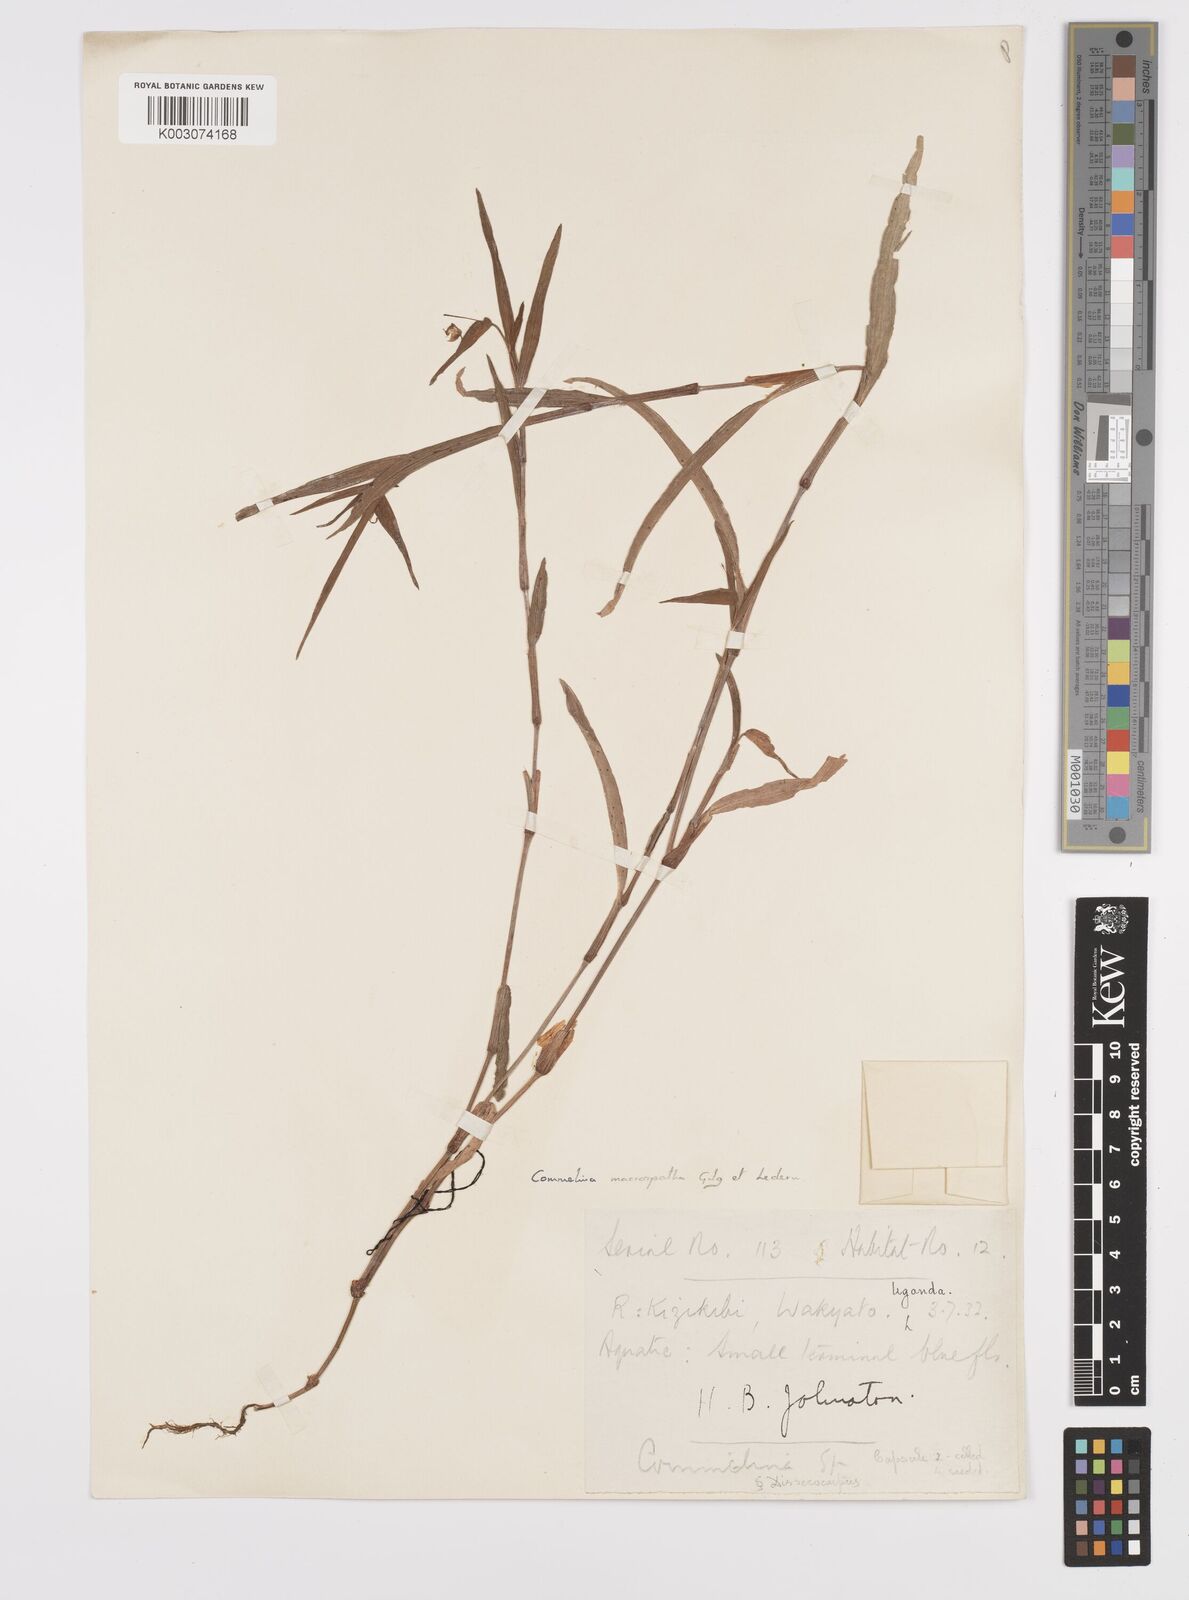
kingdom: Plantae
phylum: Tracheophyta
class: Liliopsida
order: Commelinales
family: Commelinaceae
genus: Commelina
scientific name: Commelina macrospatha
